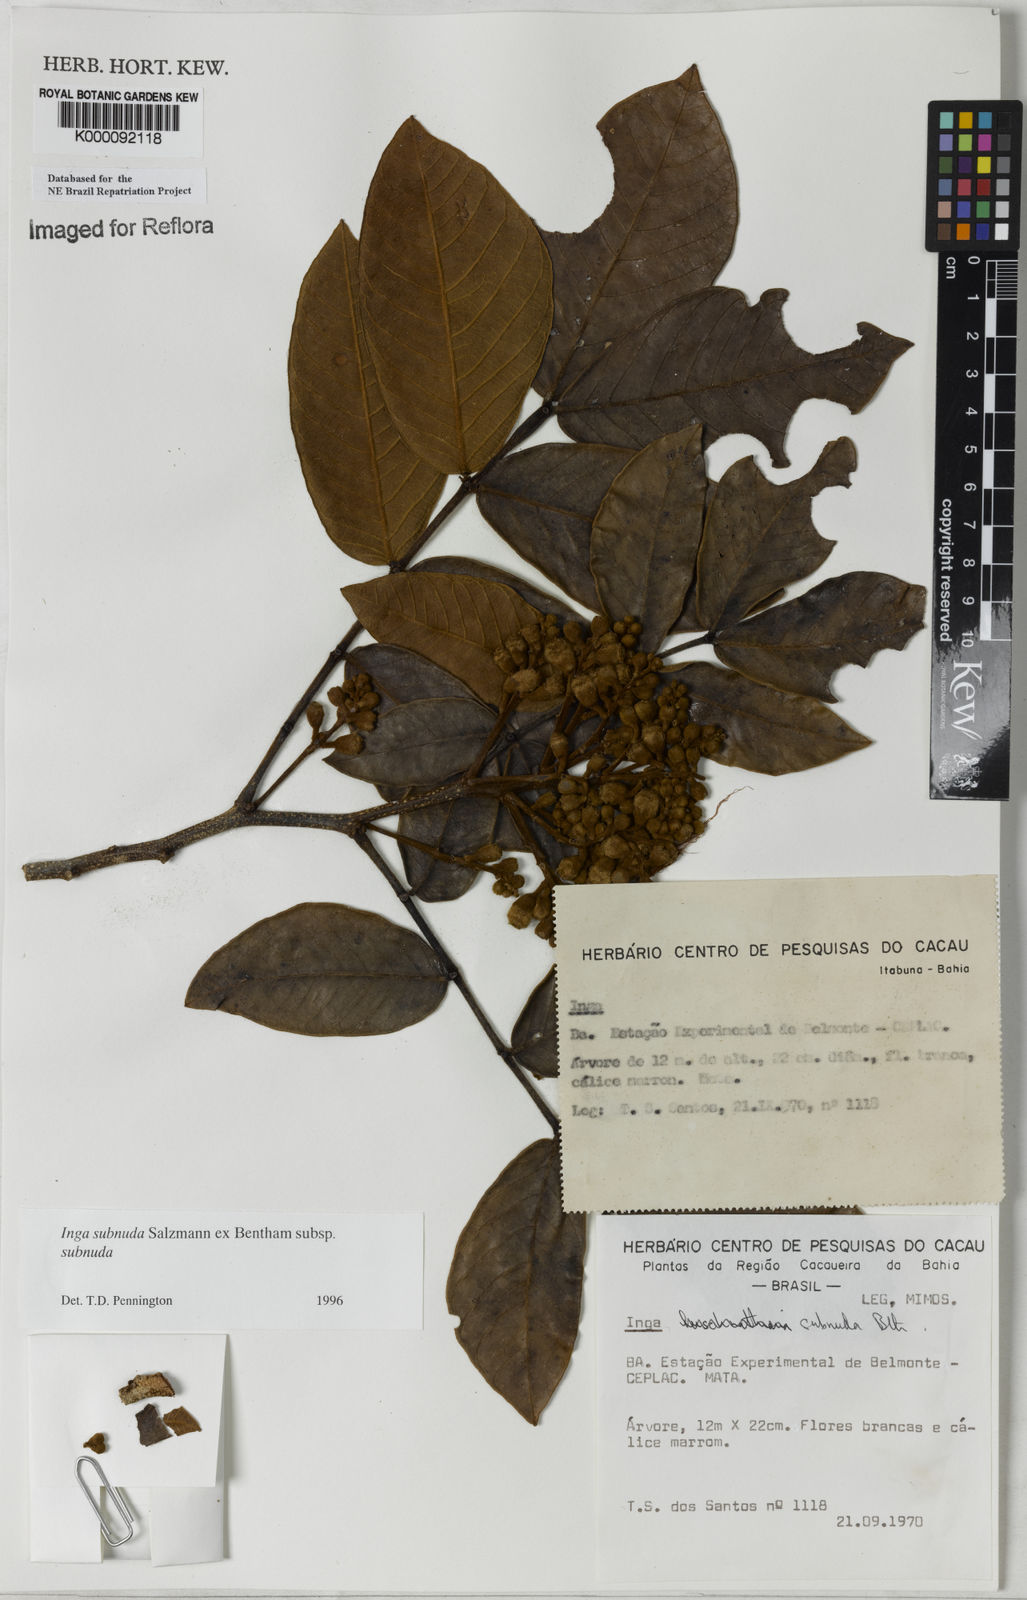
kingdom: Plantae
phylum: Tracheophyta
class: Magnoliopsida
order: Fabales
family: Fabaceae
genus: Inga
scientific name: Inga subnuda
